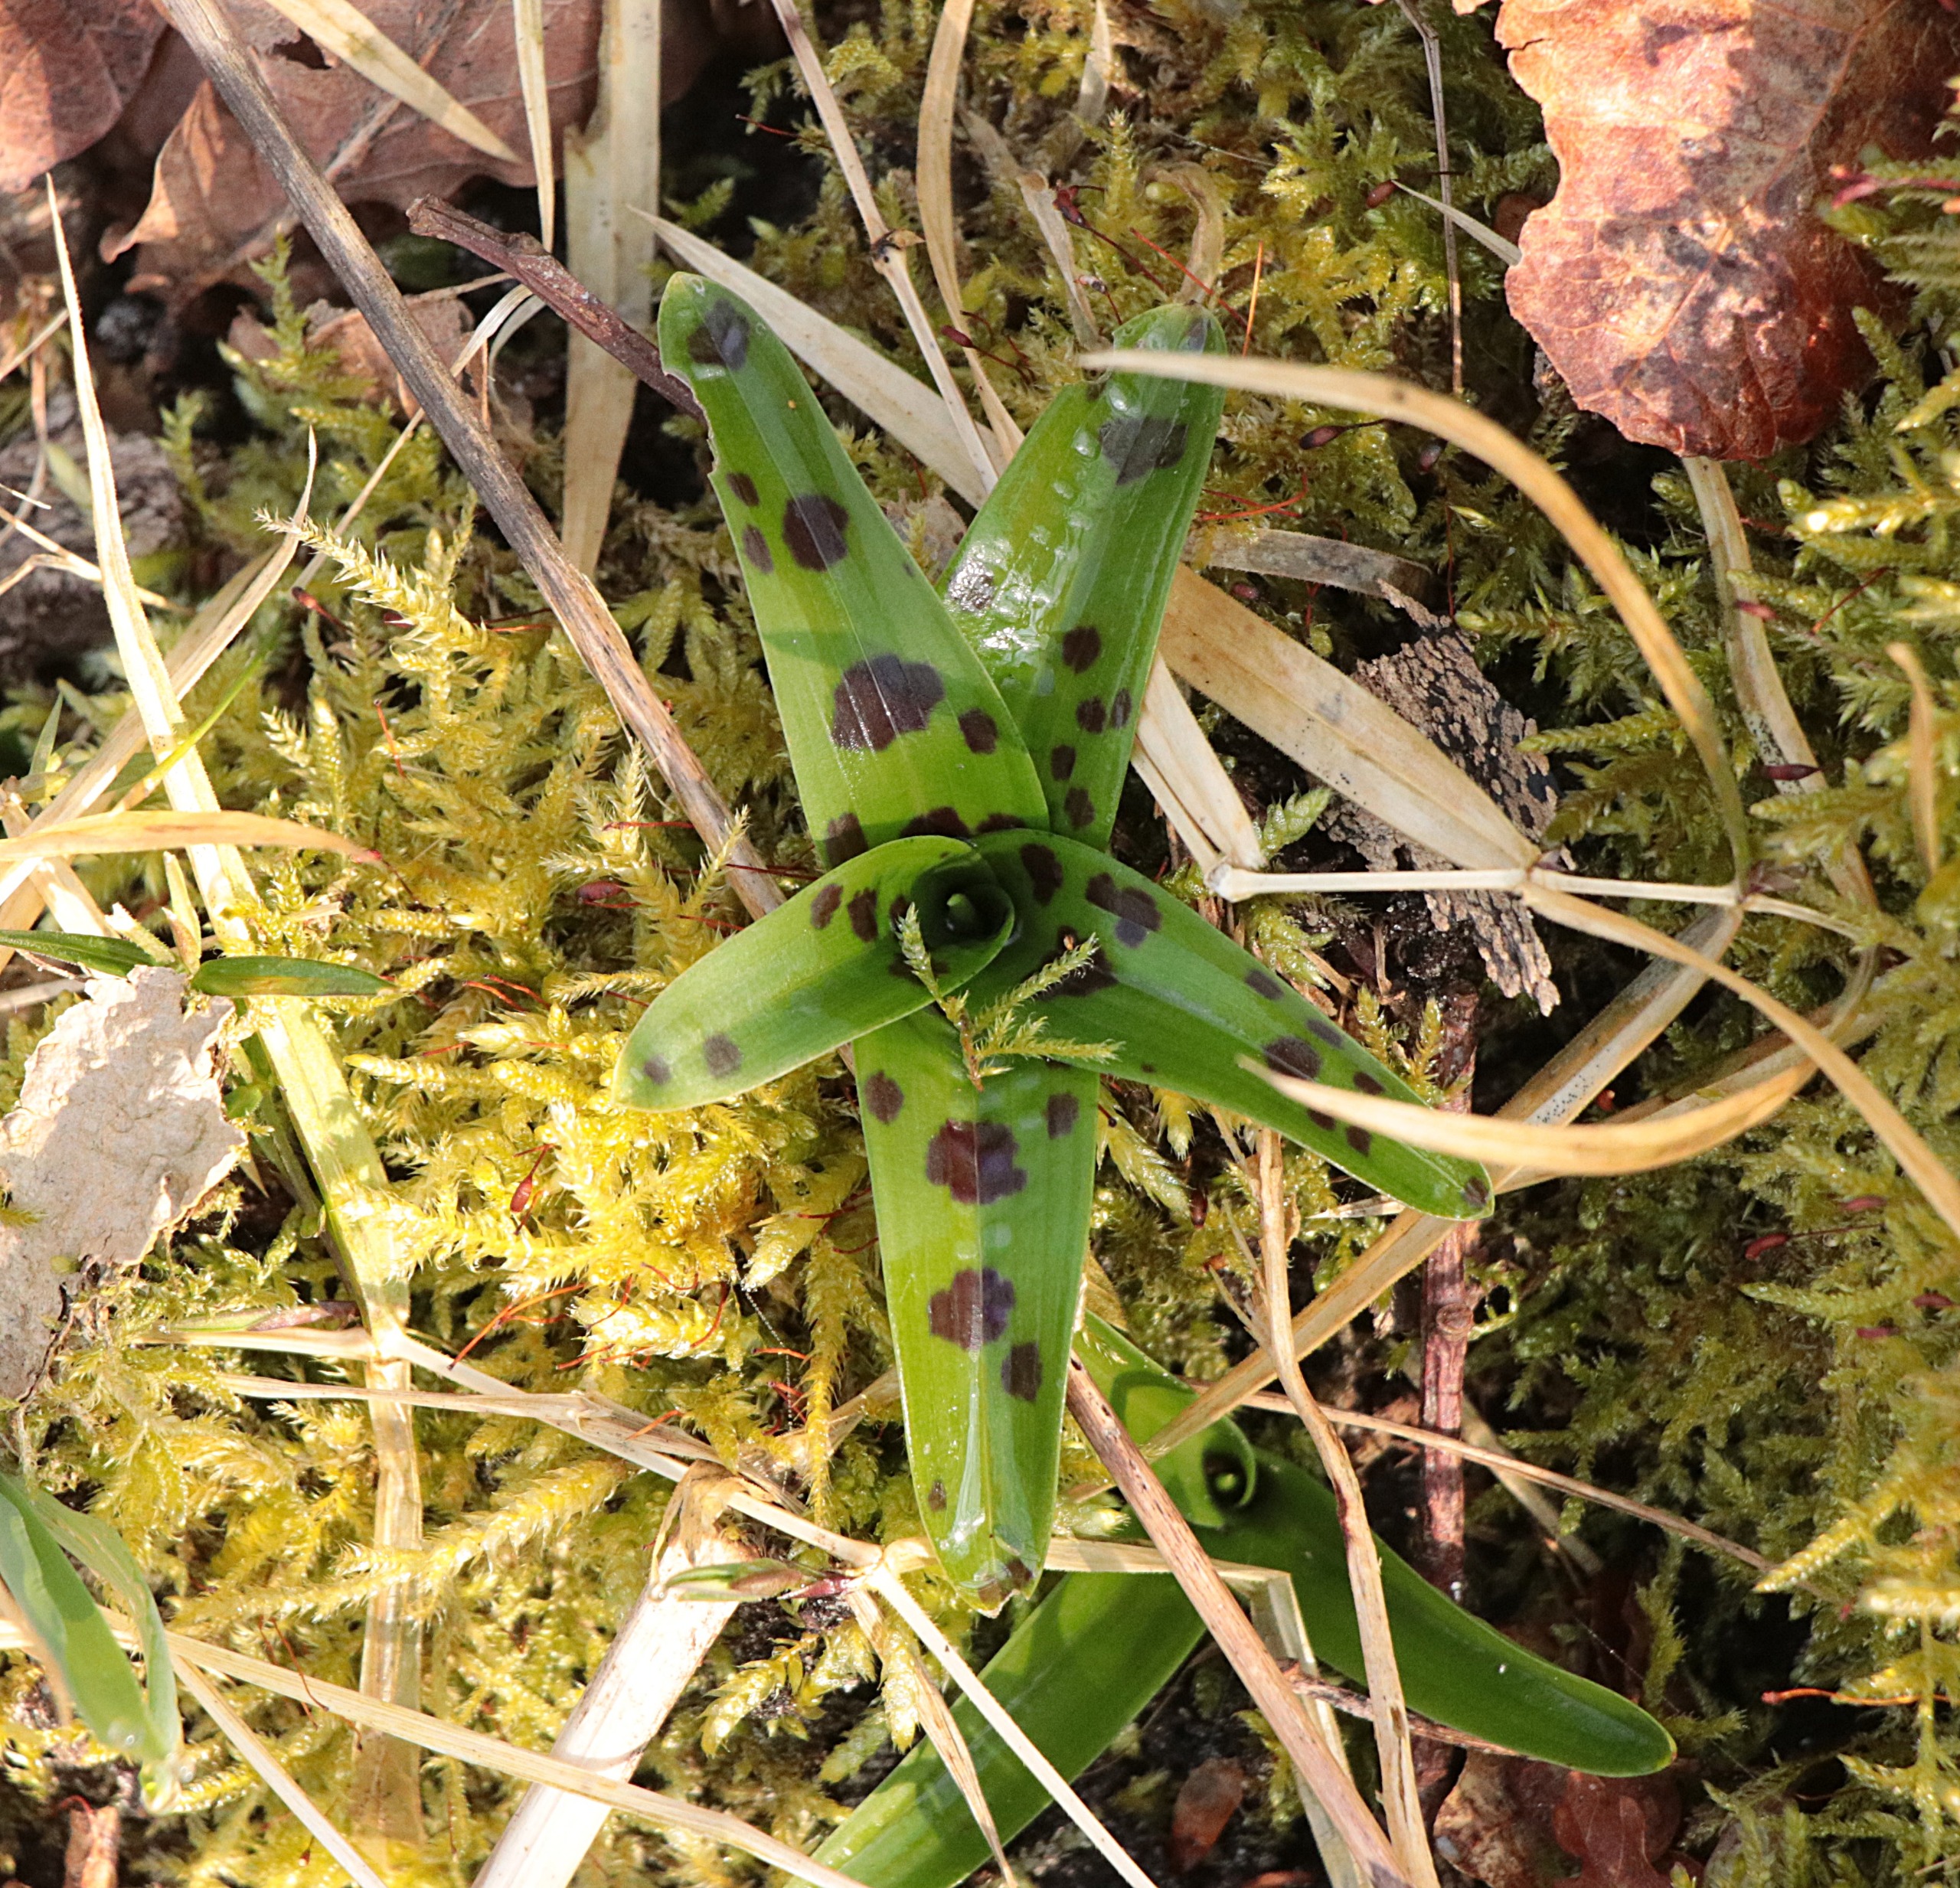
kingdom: Plantae
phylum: Tracheophyta
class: Liliopsida
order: Asparagales
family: Orchidaceae
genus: Orchis
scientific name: Orchis mascula
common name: Tyndakset gøgeurt
